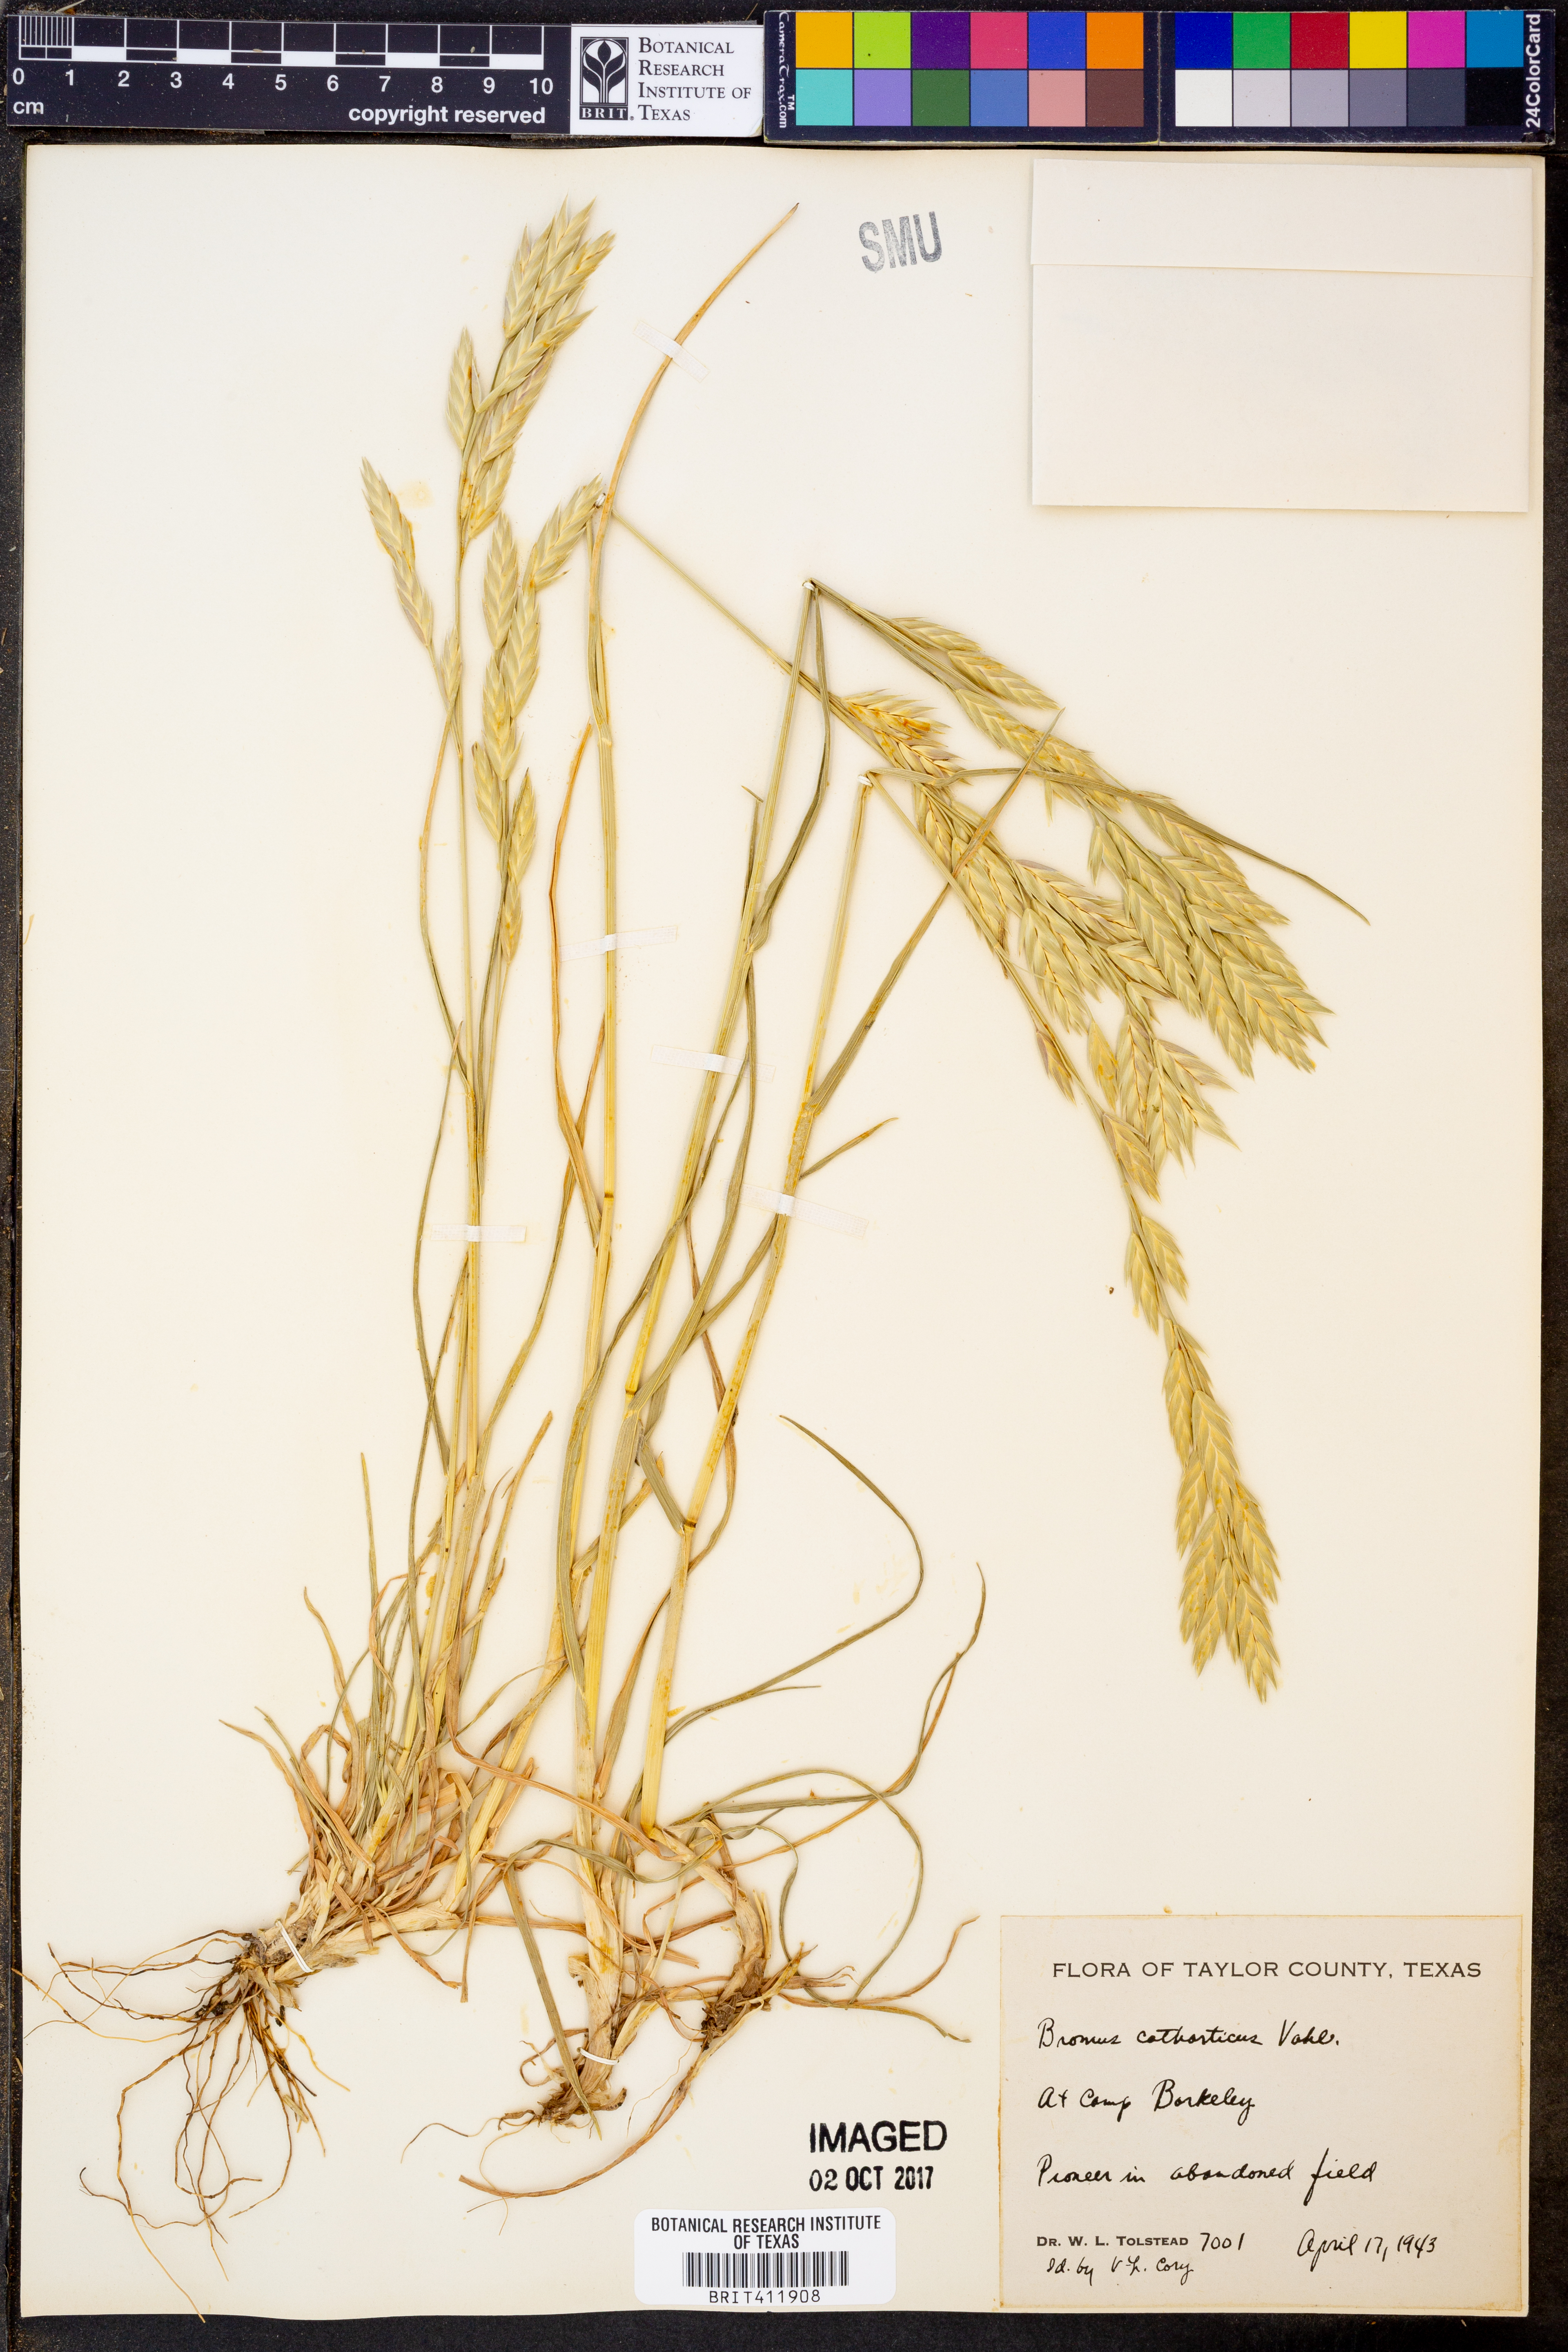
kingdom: Plantae
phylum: Tracheophyta
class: Liliopsida
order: Poales
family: Poaceae
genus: Bromus
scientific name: Bromus catharticus
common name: Rescuegrass
